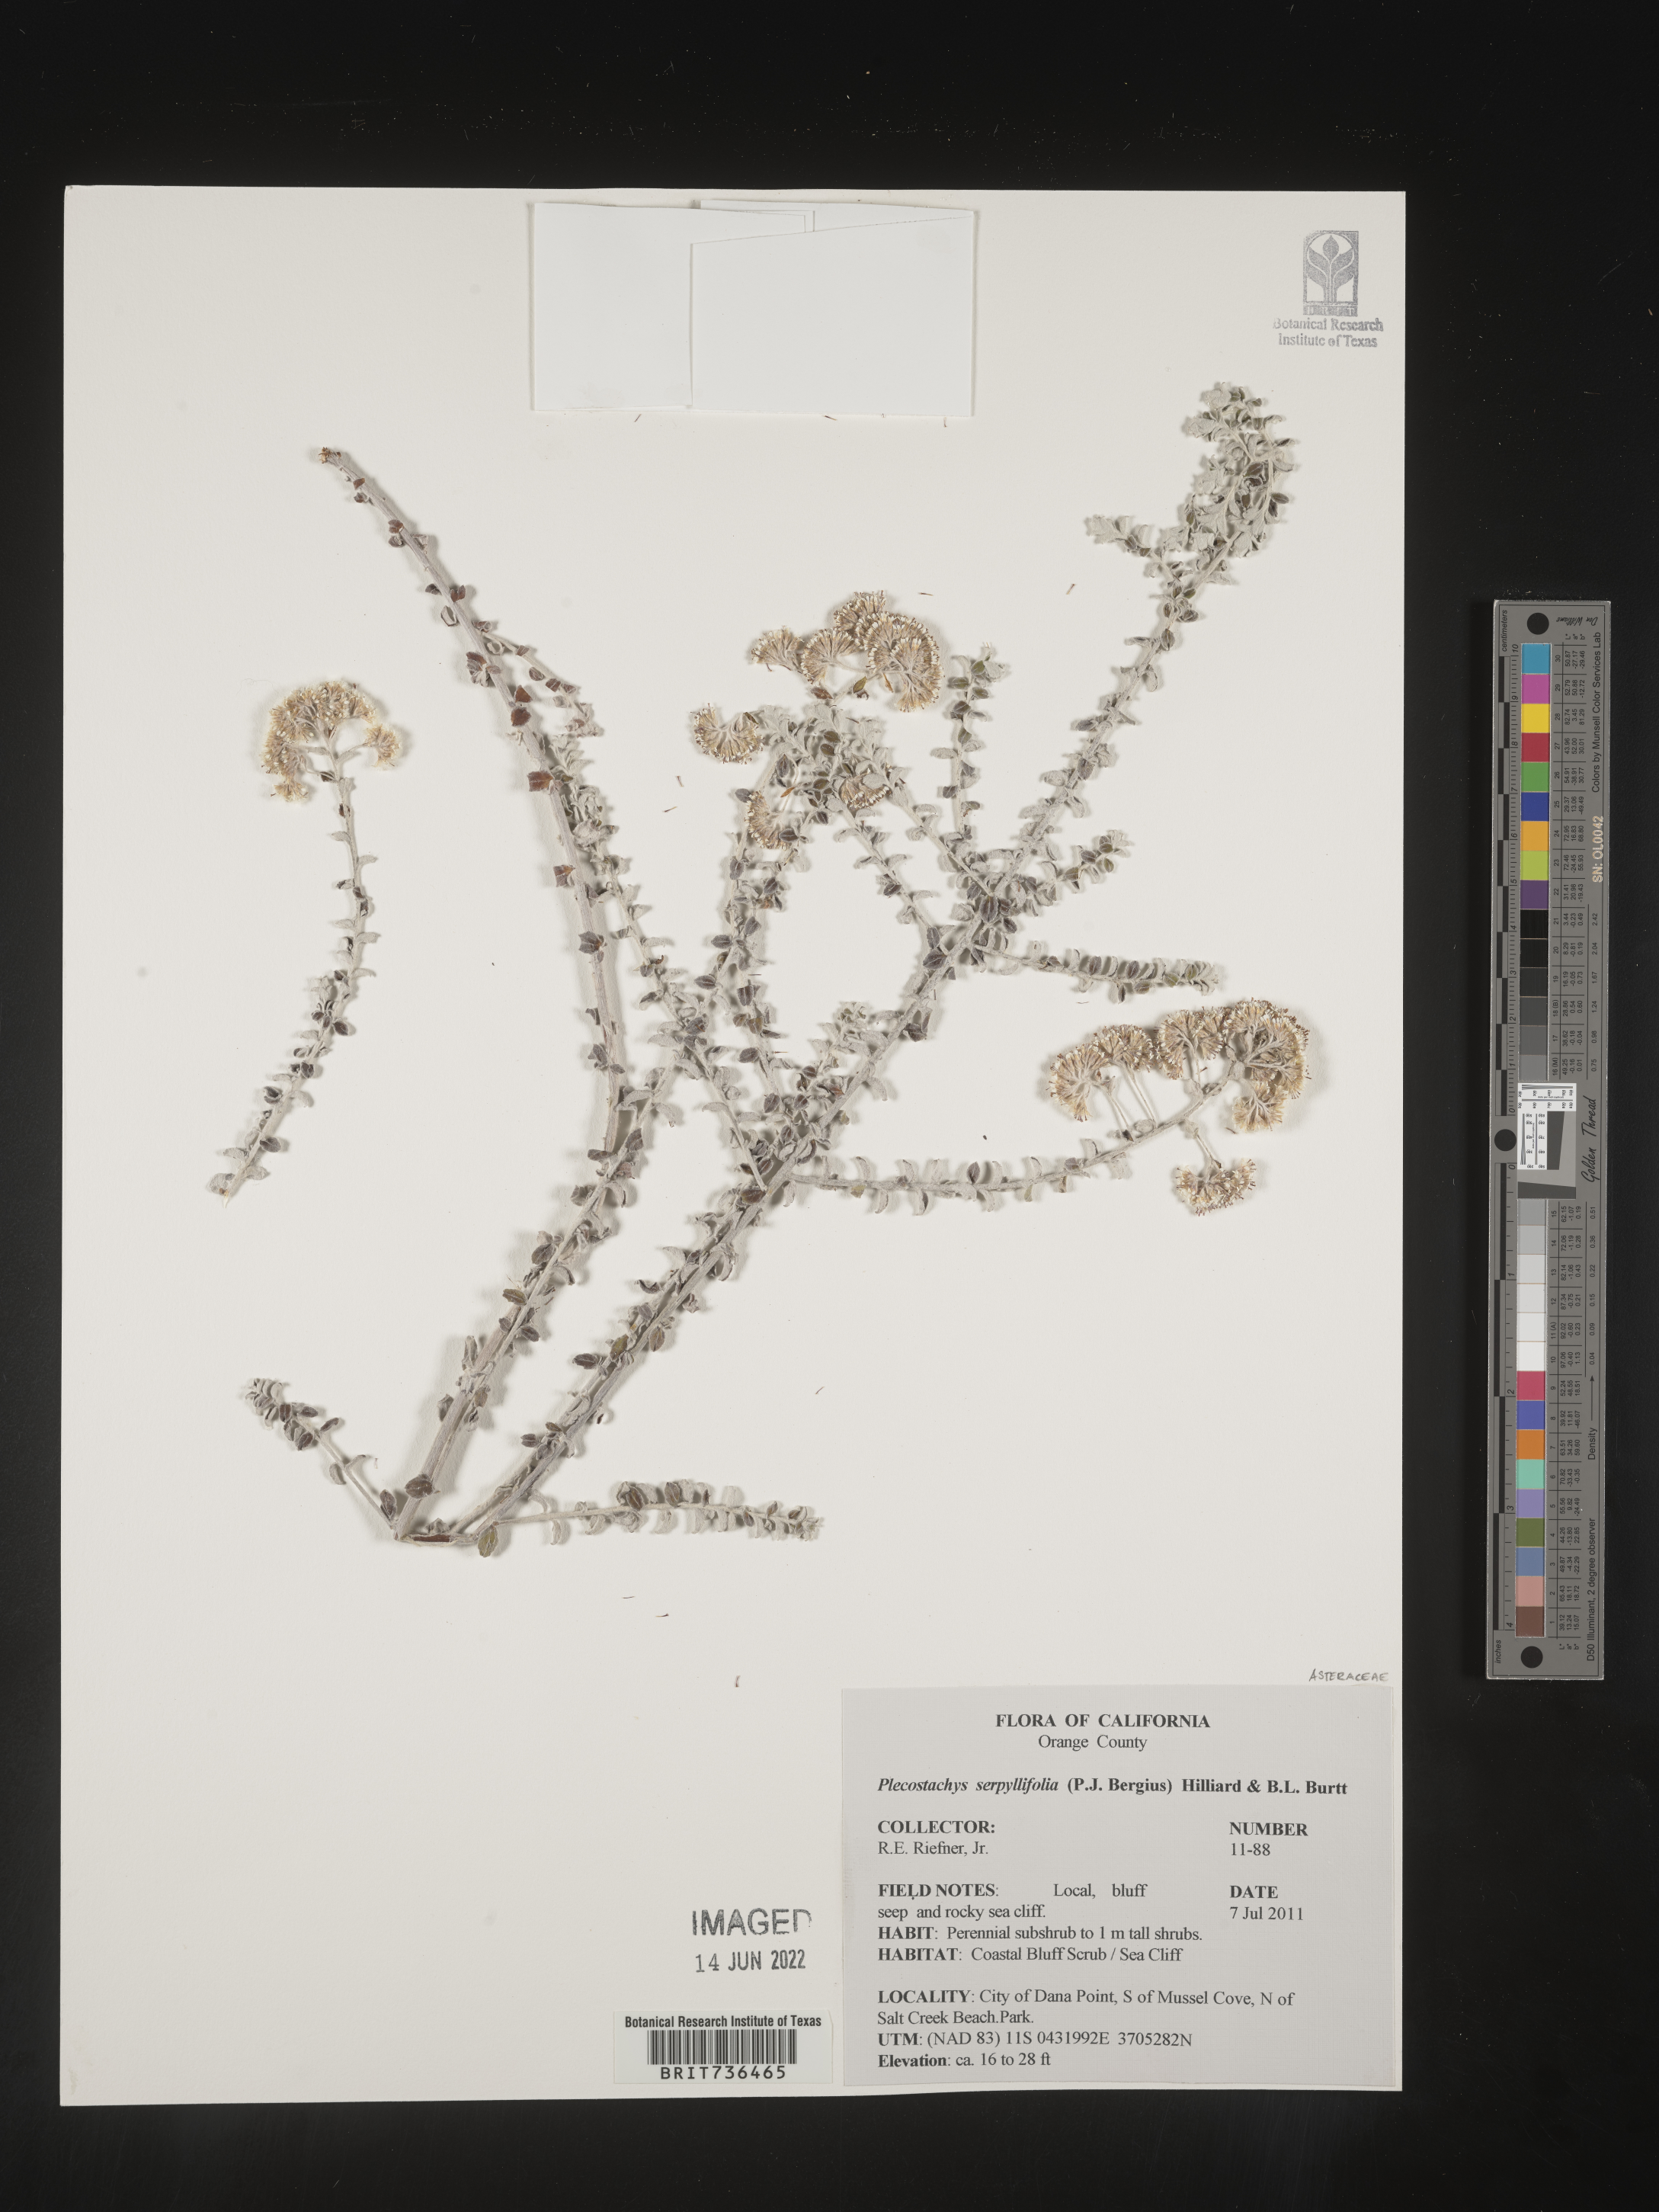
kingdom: Plantae
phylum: Tracheophyta
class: Magnoliopsida
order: Asterales
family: Asteraceae
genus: Plecostachys
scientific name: Plecostachys
